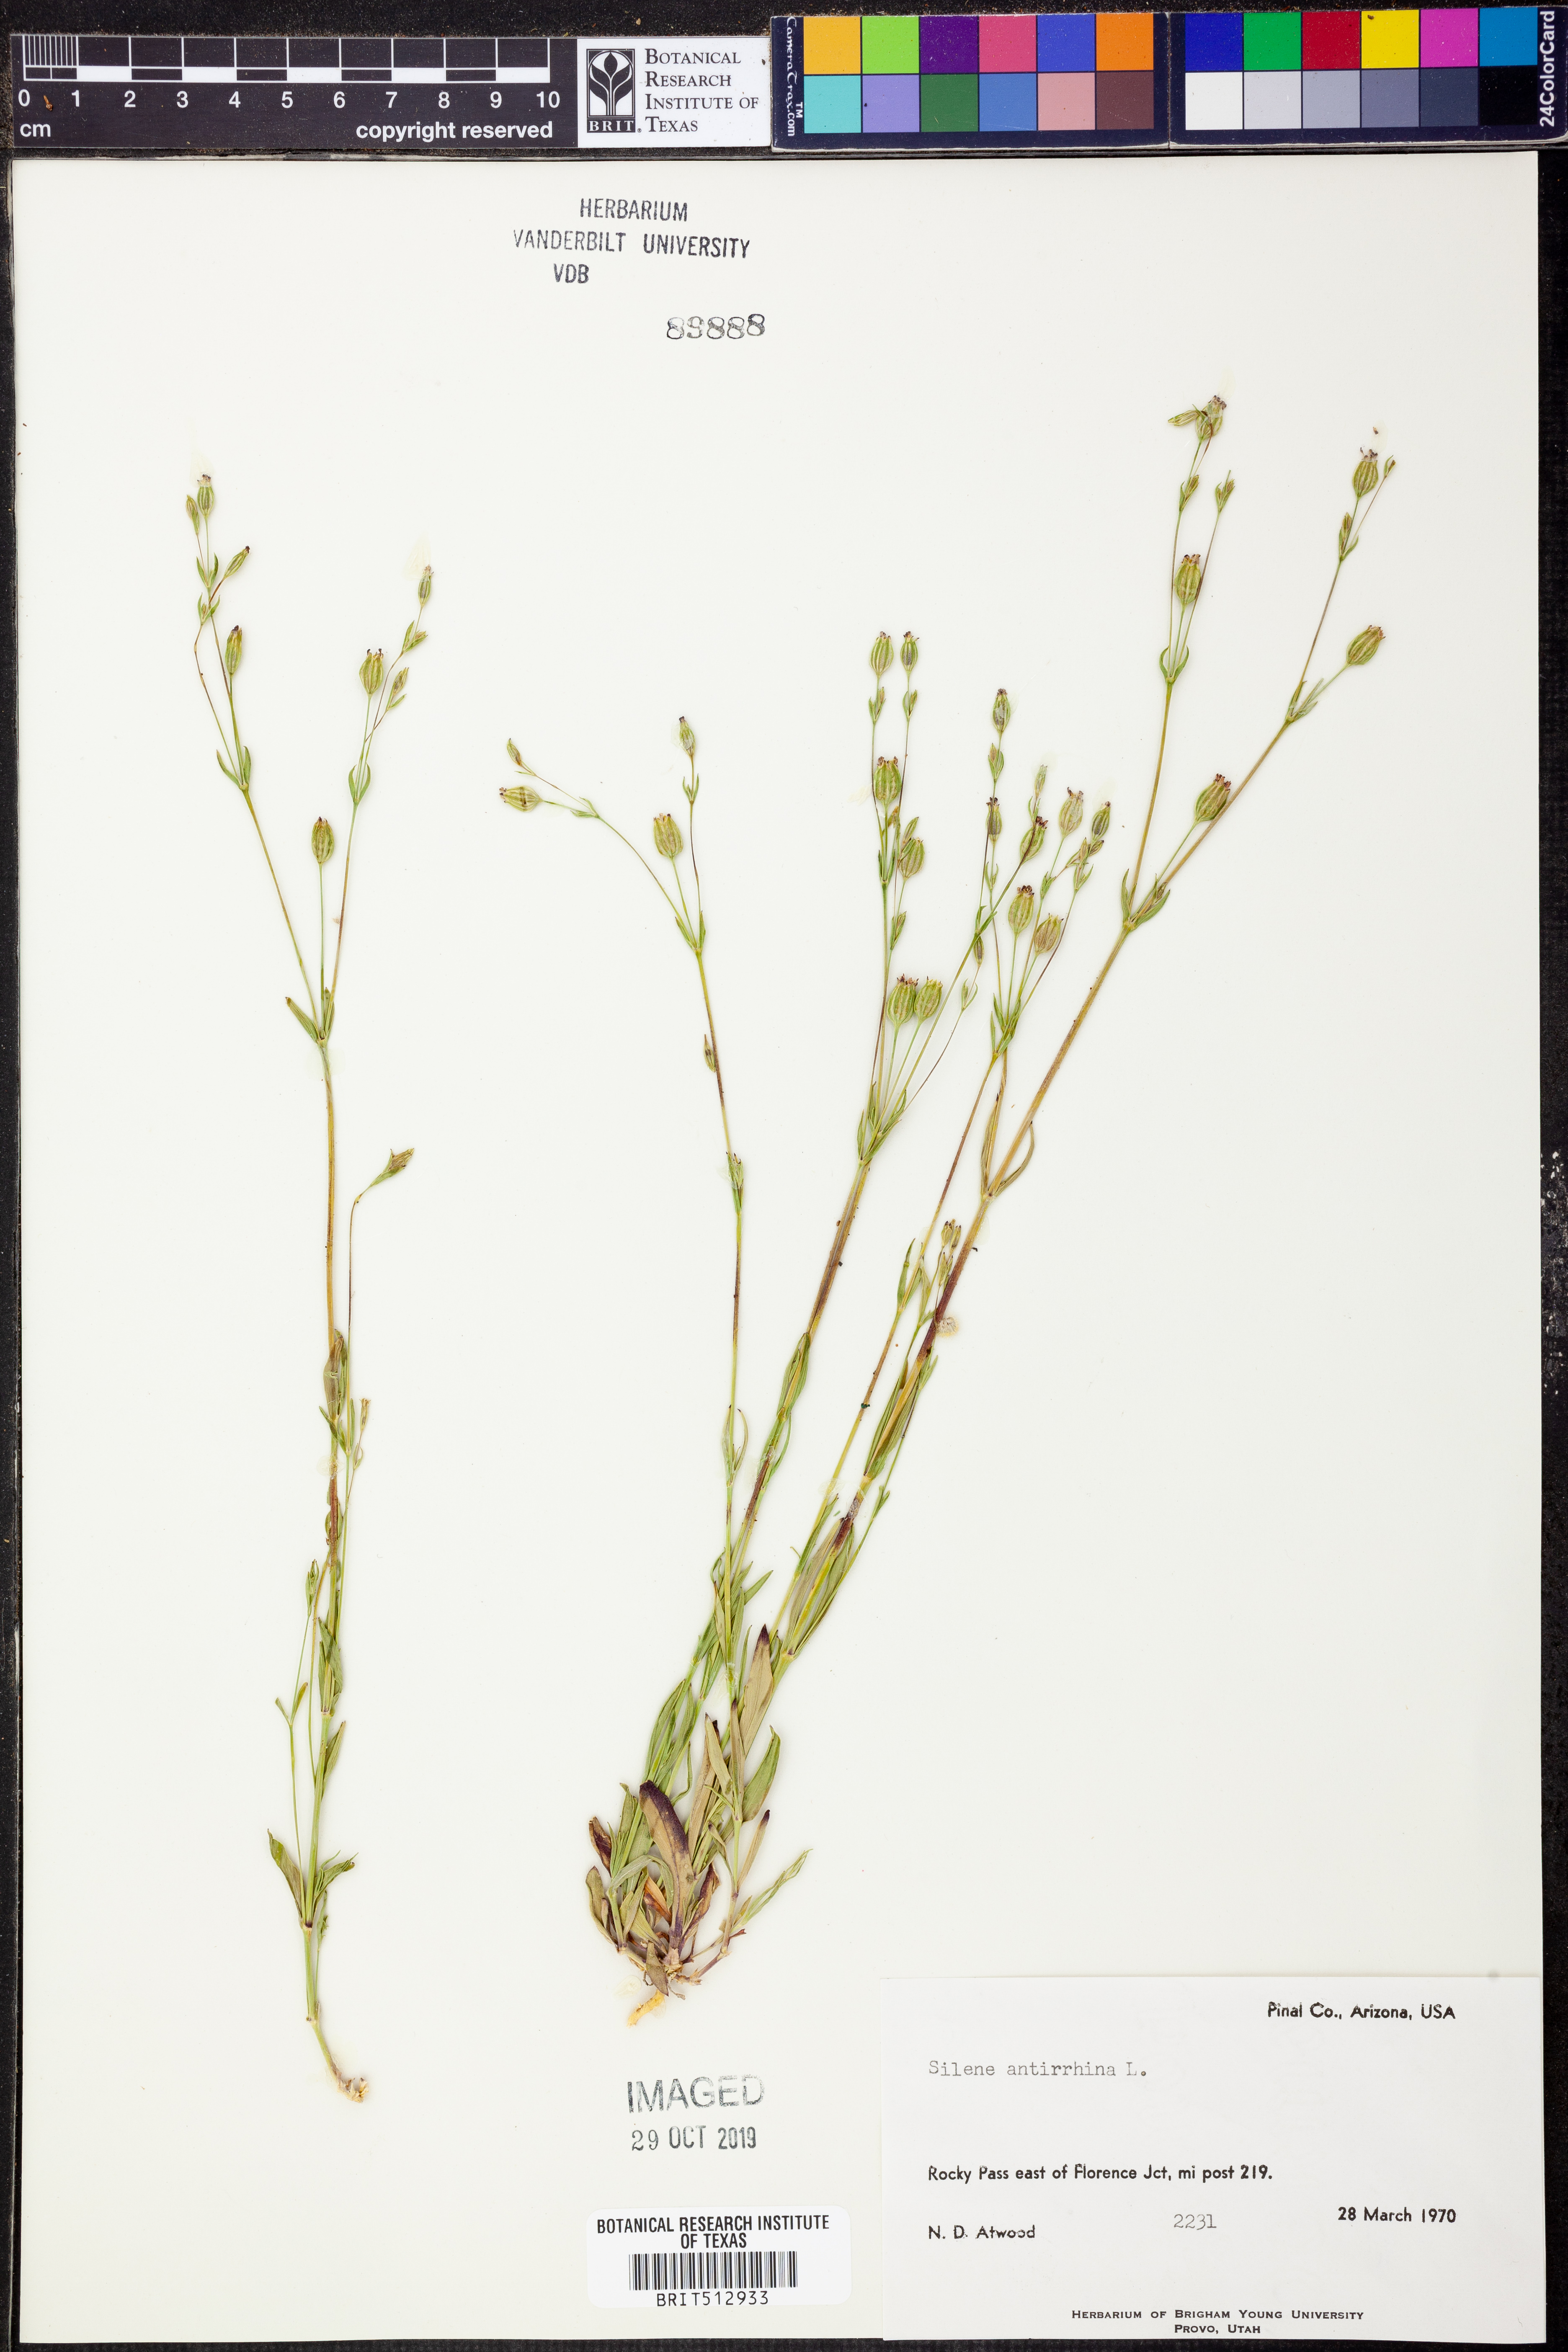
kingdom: Plantae
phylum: Tracheophyta
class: Magnoliopsida
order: Caryophyllales
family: Caryophyllaceae
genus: Silene
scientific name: Silene antirrhina
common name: Sleepy catchfly
